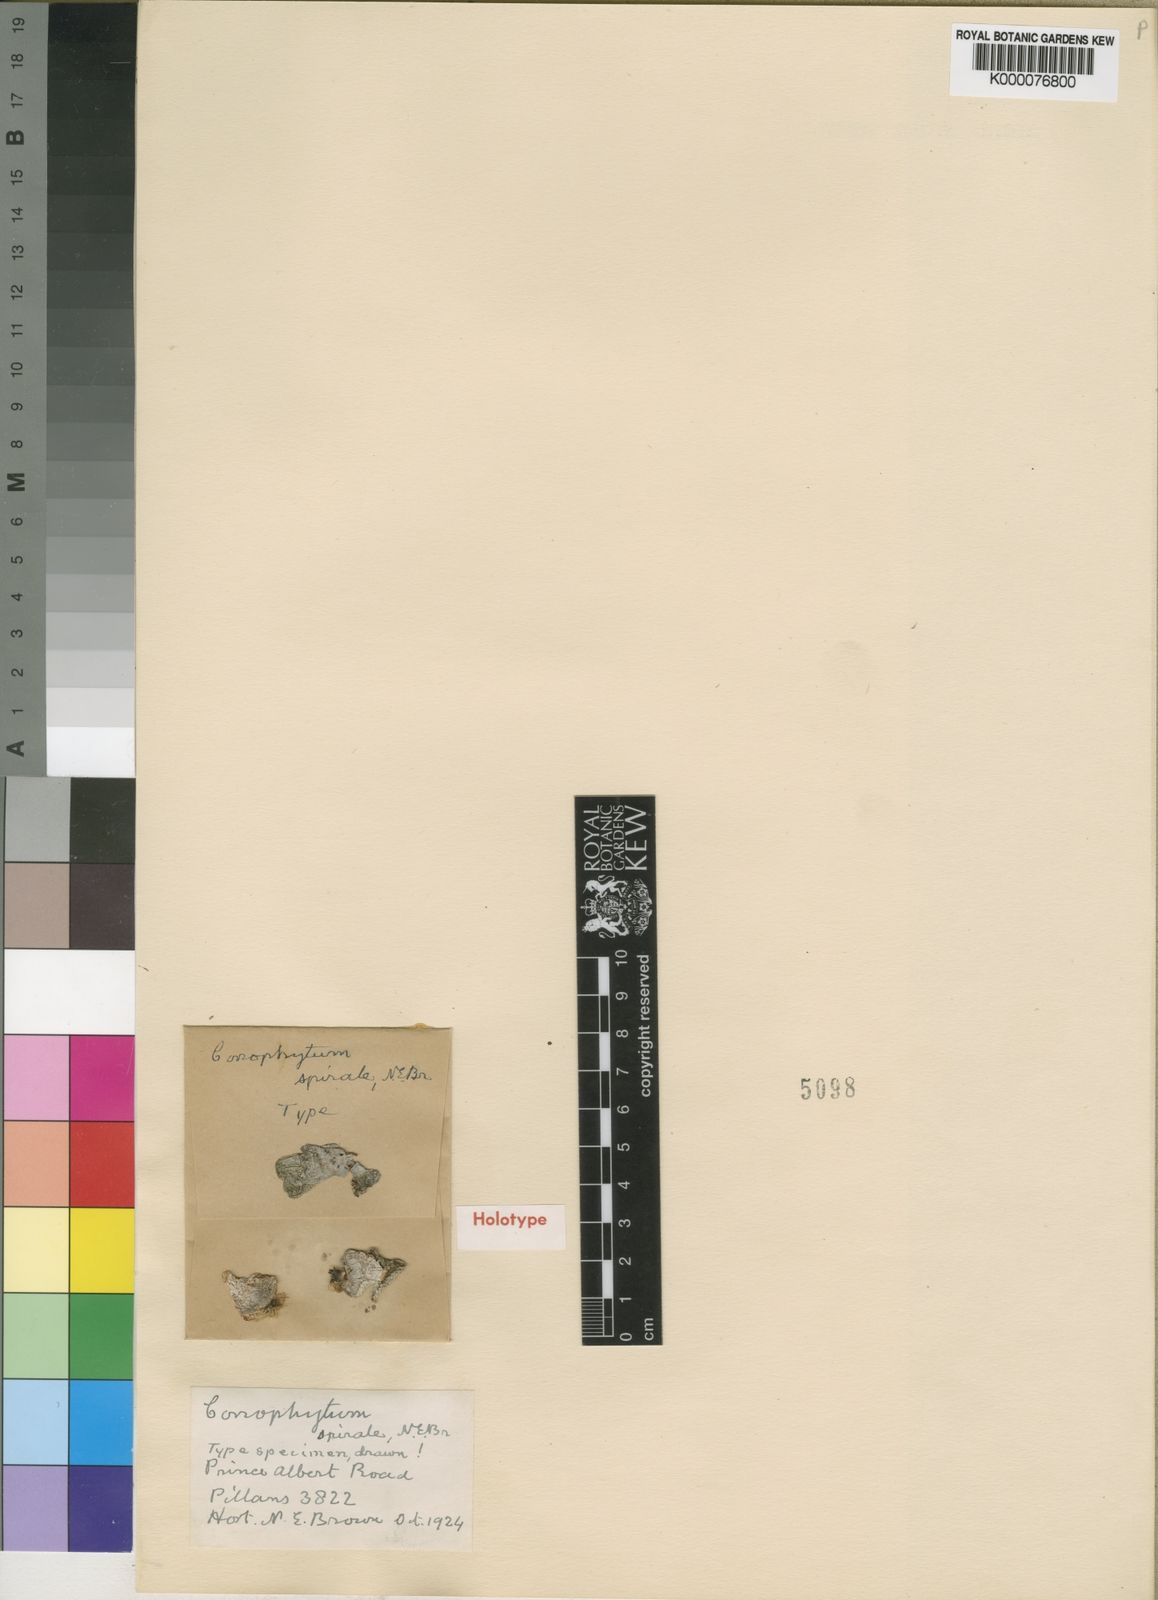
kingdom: Plantae
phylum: Tracheophyta
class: Magnoliopsida
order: Caryophyllales
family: Aizoaceae
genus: Conophytum
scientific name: Conophytum truncatum
